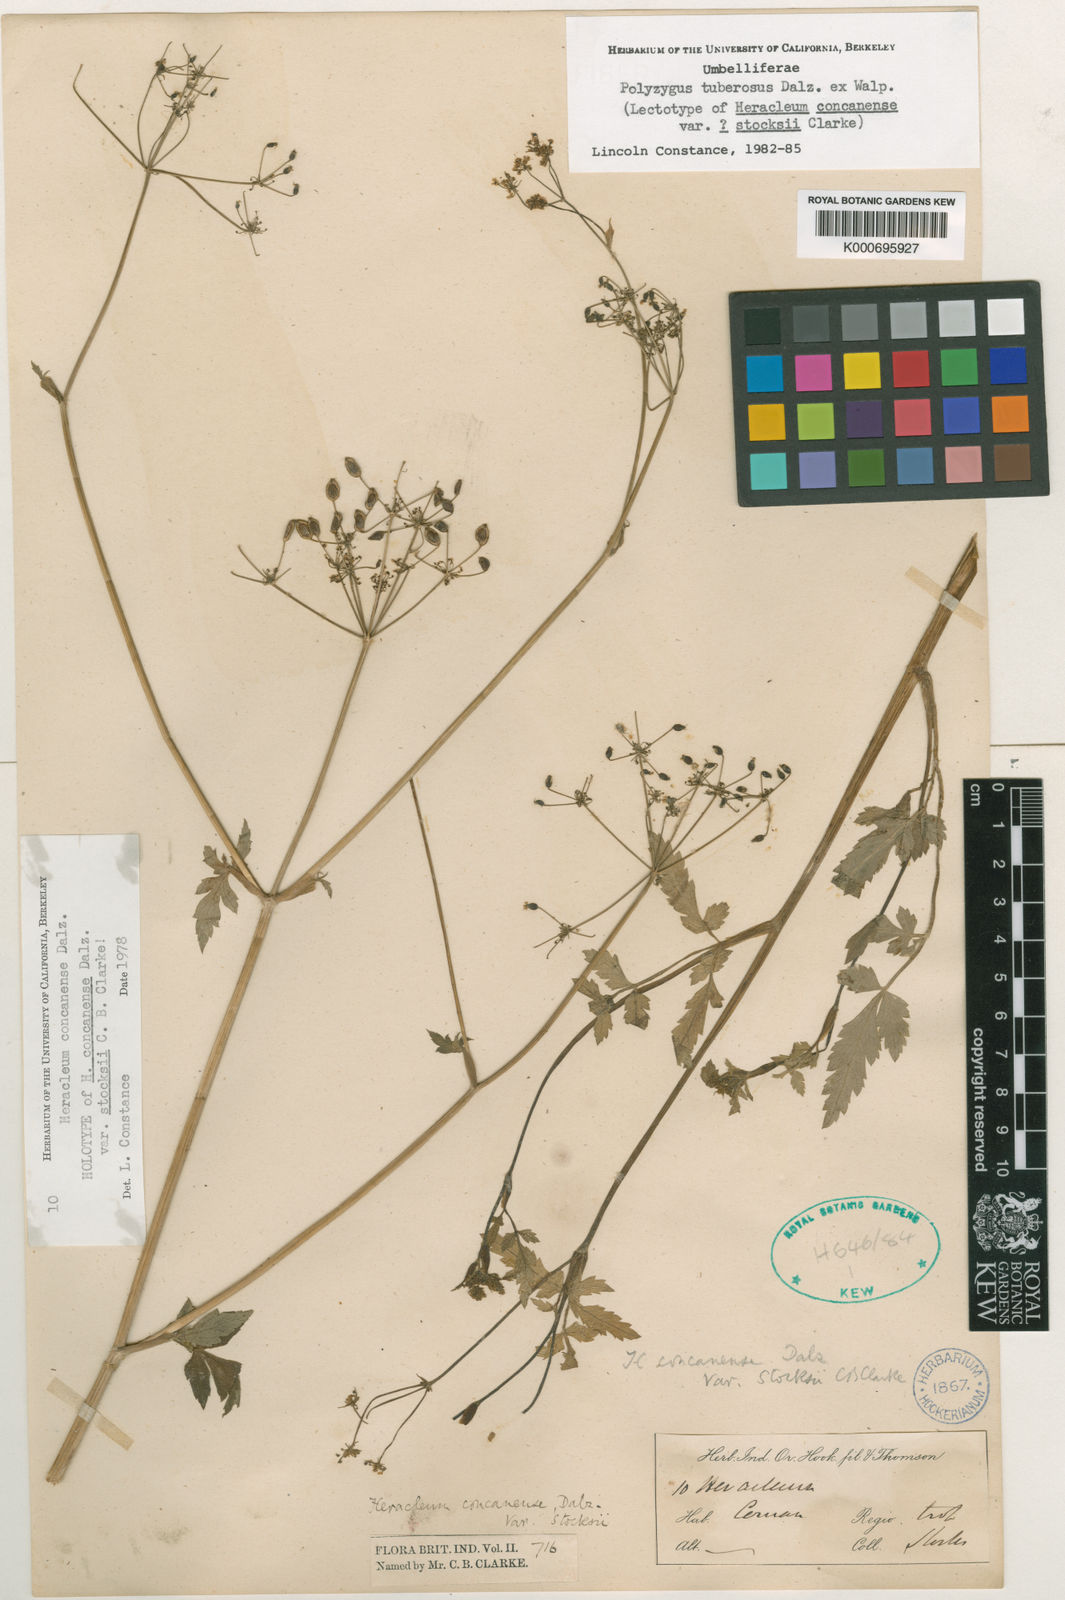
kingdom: Plantae
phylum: Tracheophyta
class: Magnoliopsida
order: Apiales
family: Apiaceae
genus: Polyzygus
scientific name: Polyzygus
